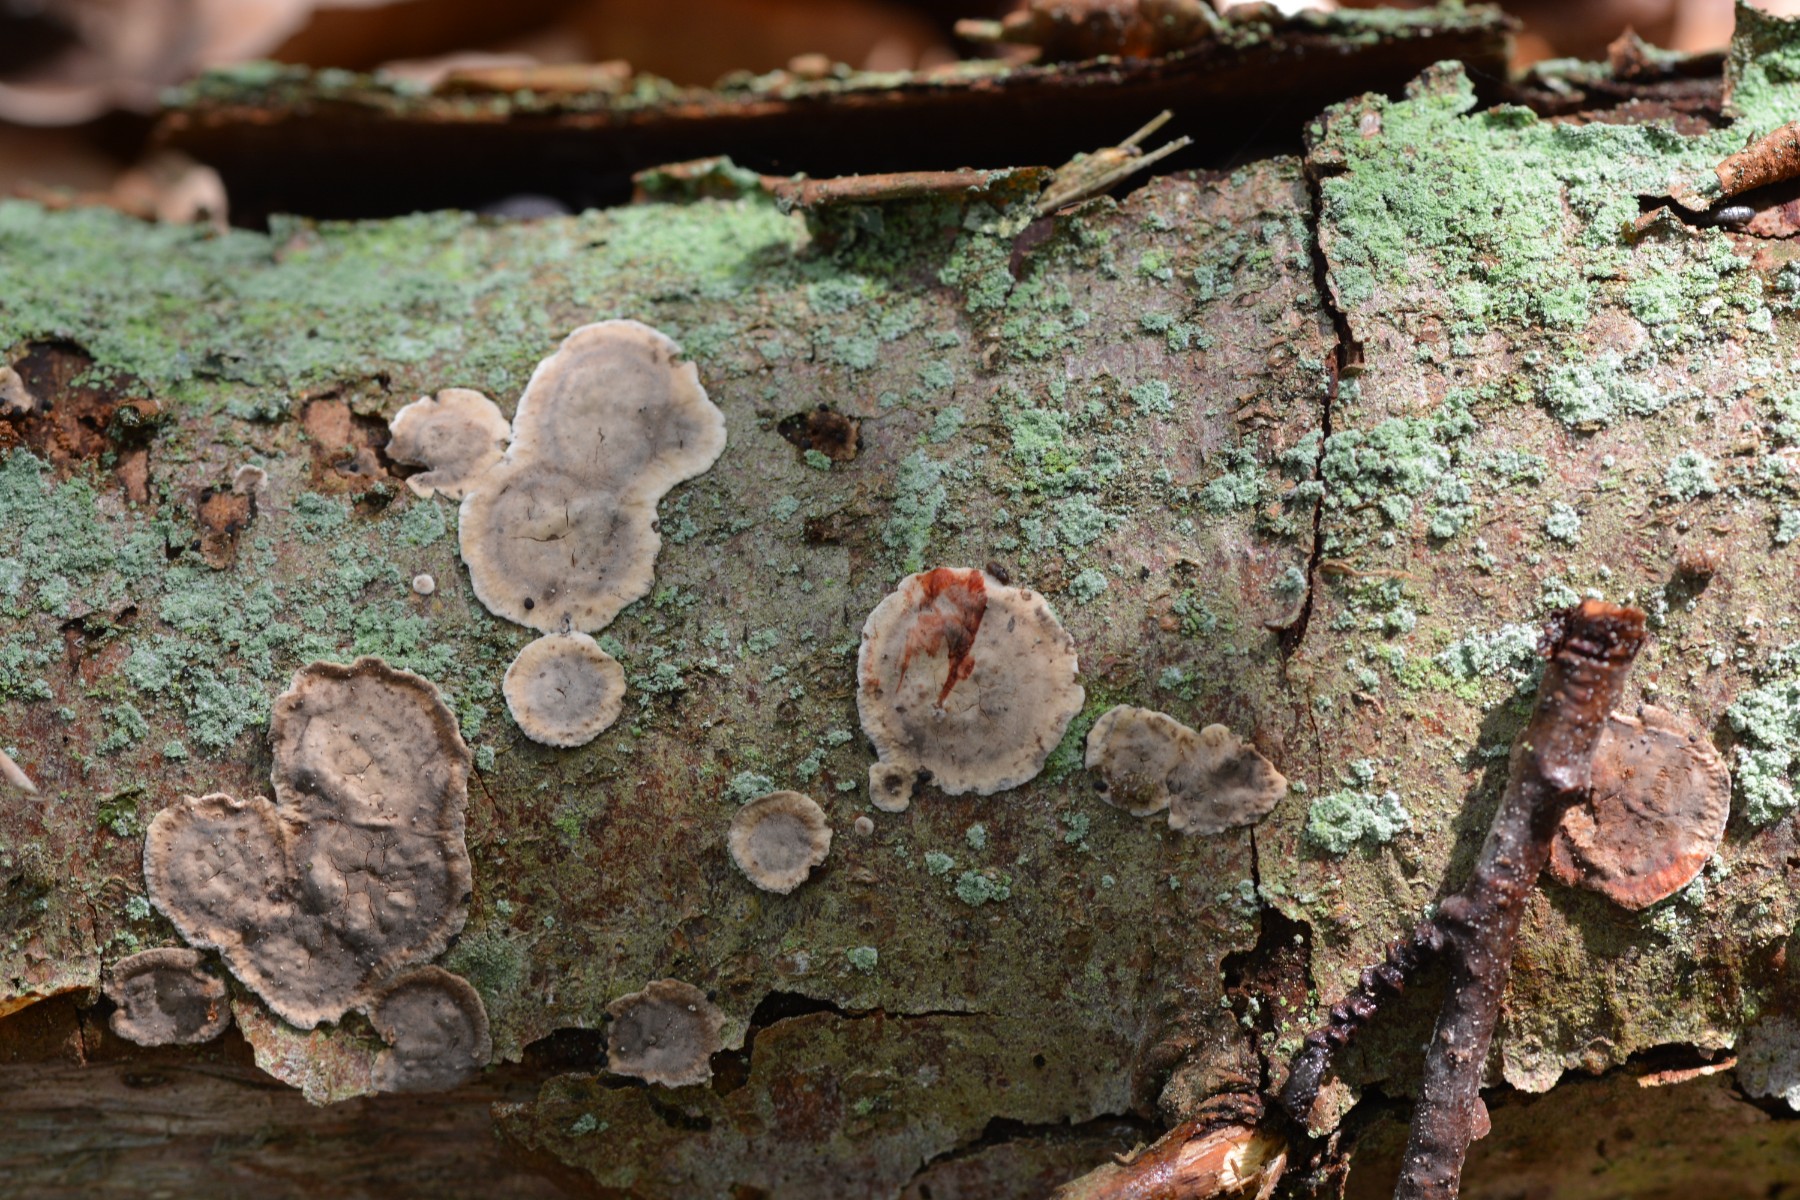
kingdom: Fungi
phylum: Basidiomycota
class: Agaricomycetes
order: Russulales
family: Stereaceae
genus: Stereum
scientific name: Stereum rugosum
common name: rynket lædersvamp
